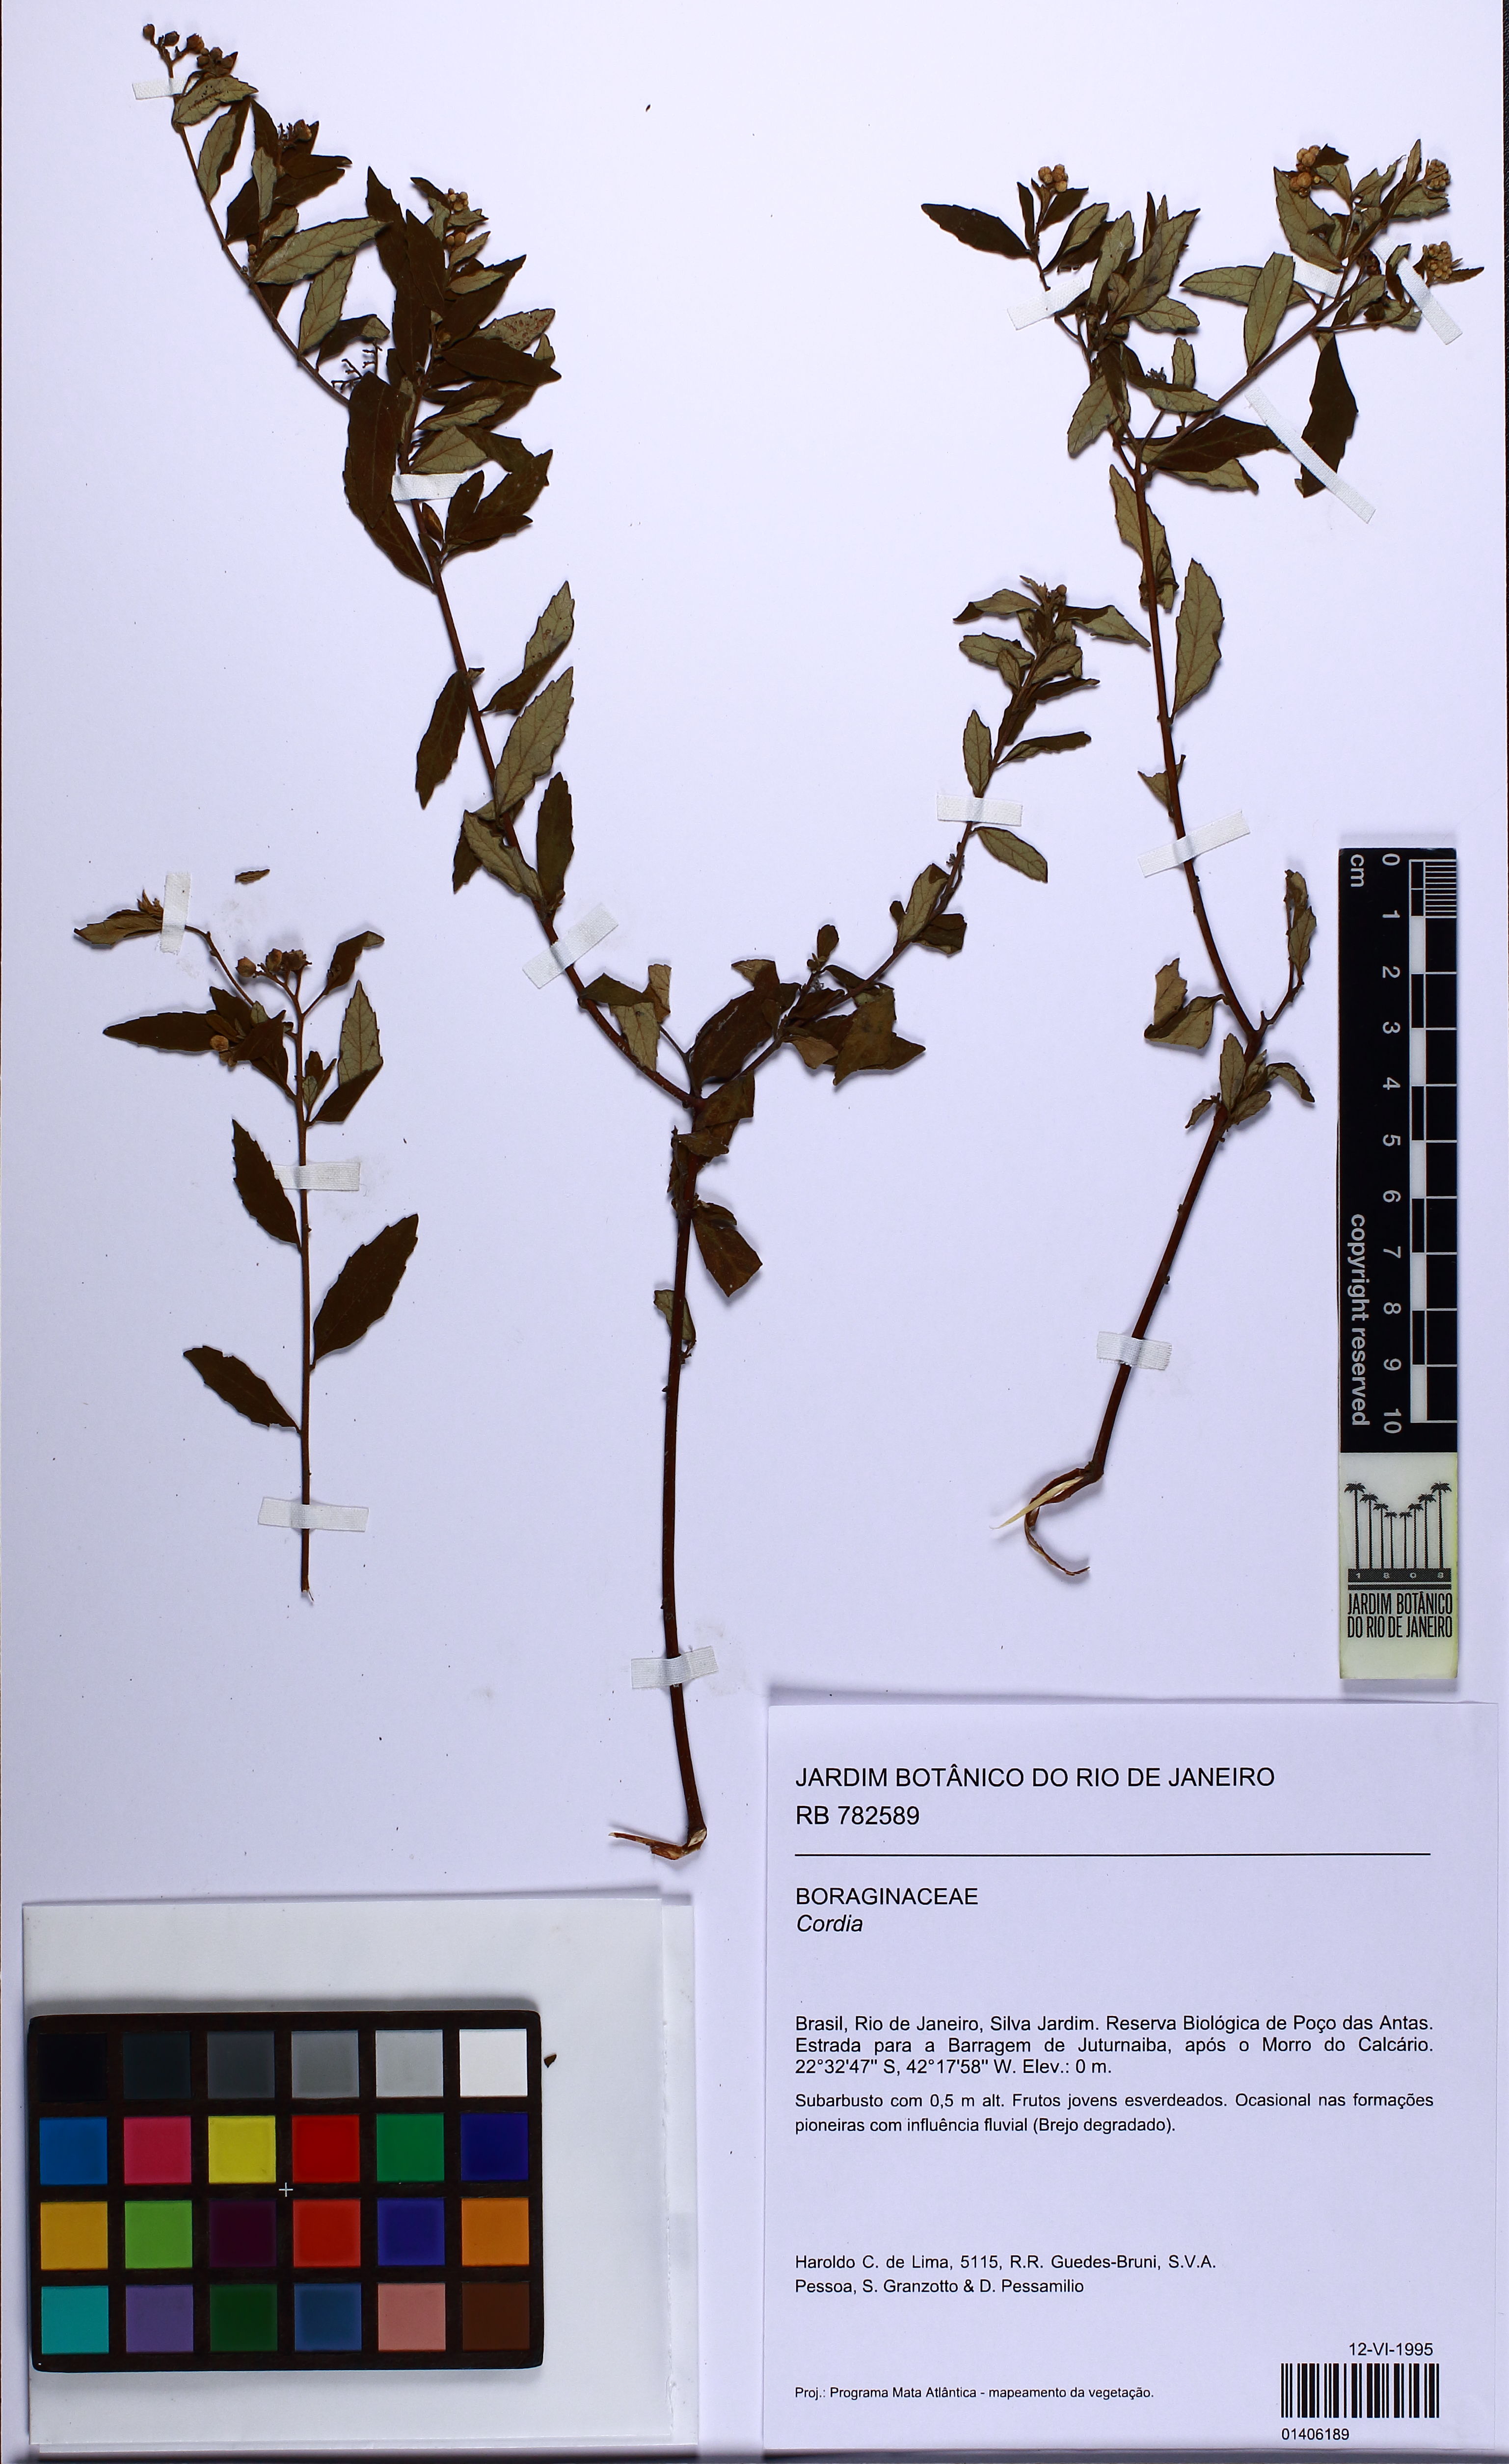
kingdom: Plantae
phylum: Tracheophyta
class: Magnoliopsida
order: Boraginales
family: Cordiaceae
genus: Cordia
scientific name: Cordia
